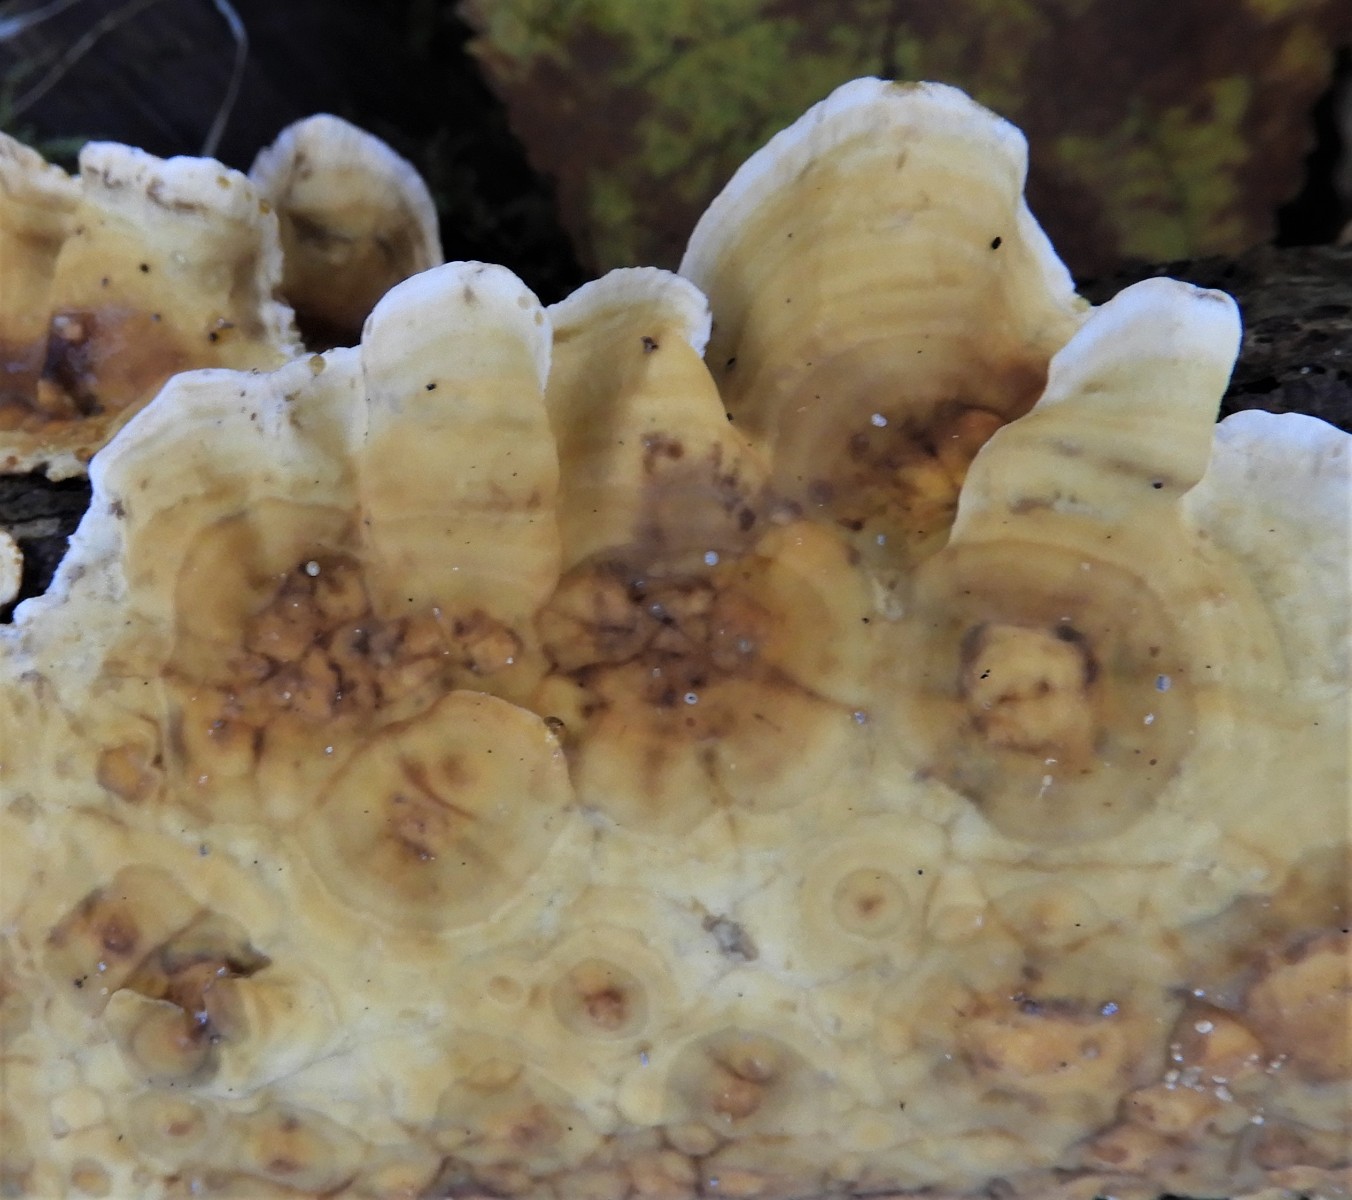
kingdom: Fungi
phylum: Basidiomycota
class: Agaricomycetes
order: Russulales
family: Stereaceae
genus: Stereum
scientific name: Stereum hirsutum
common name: håret lædersvamp
